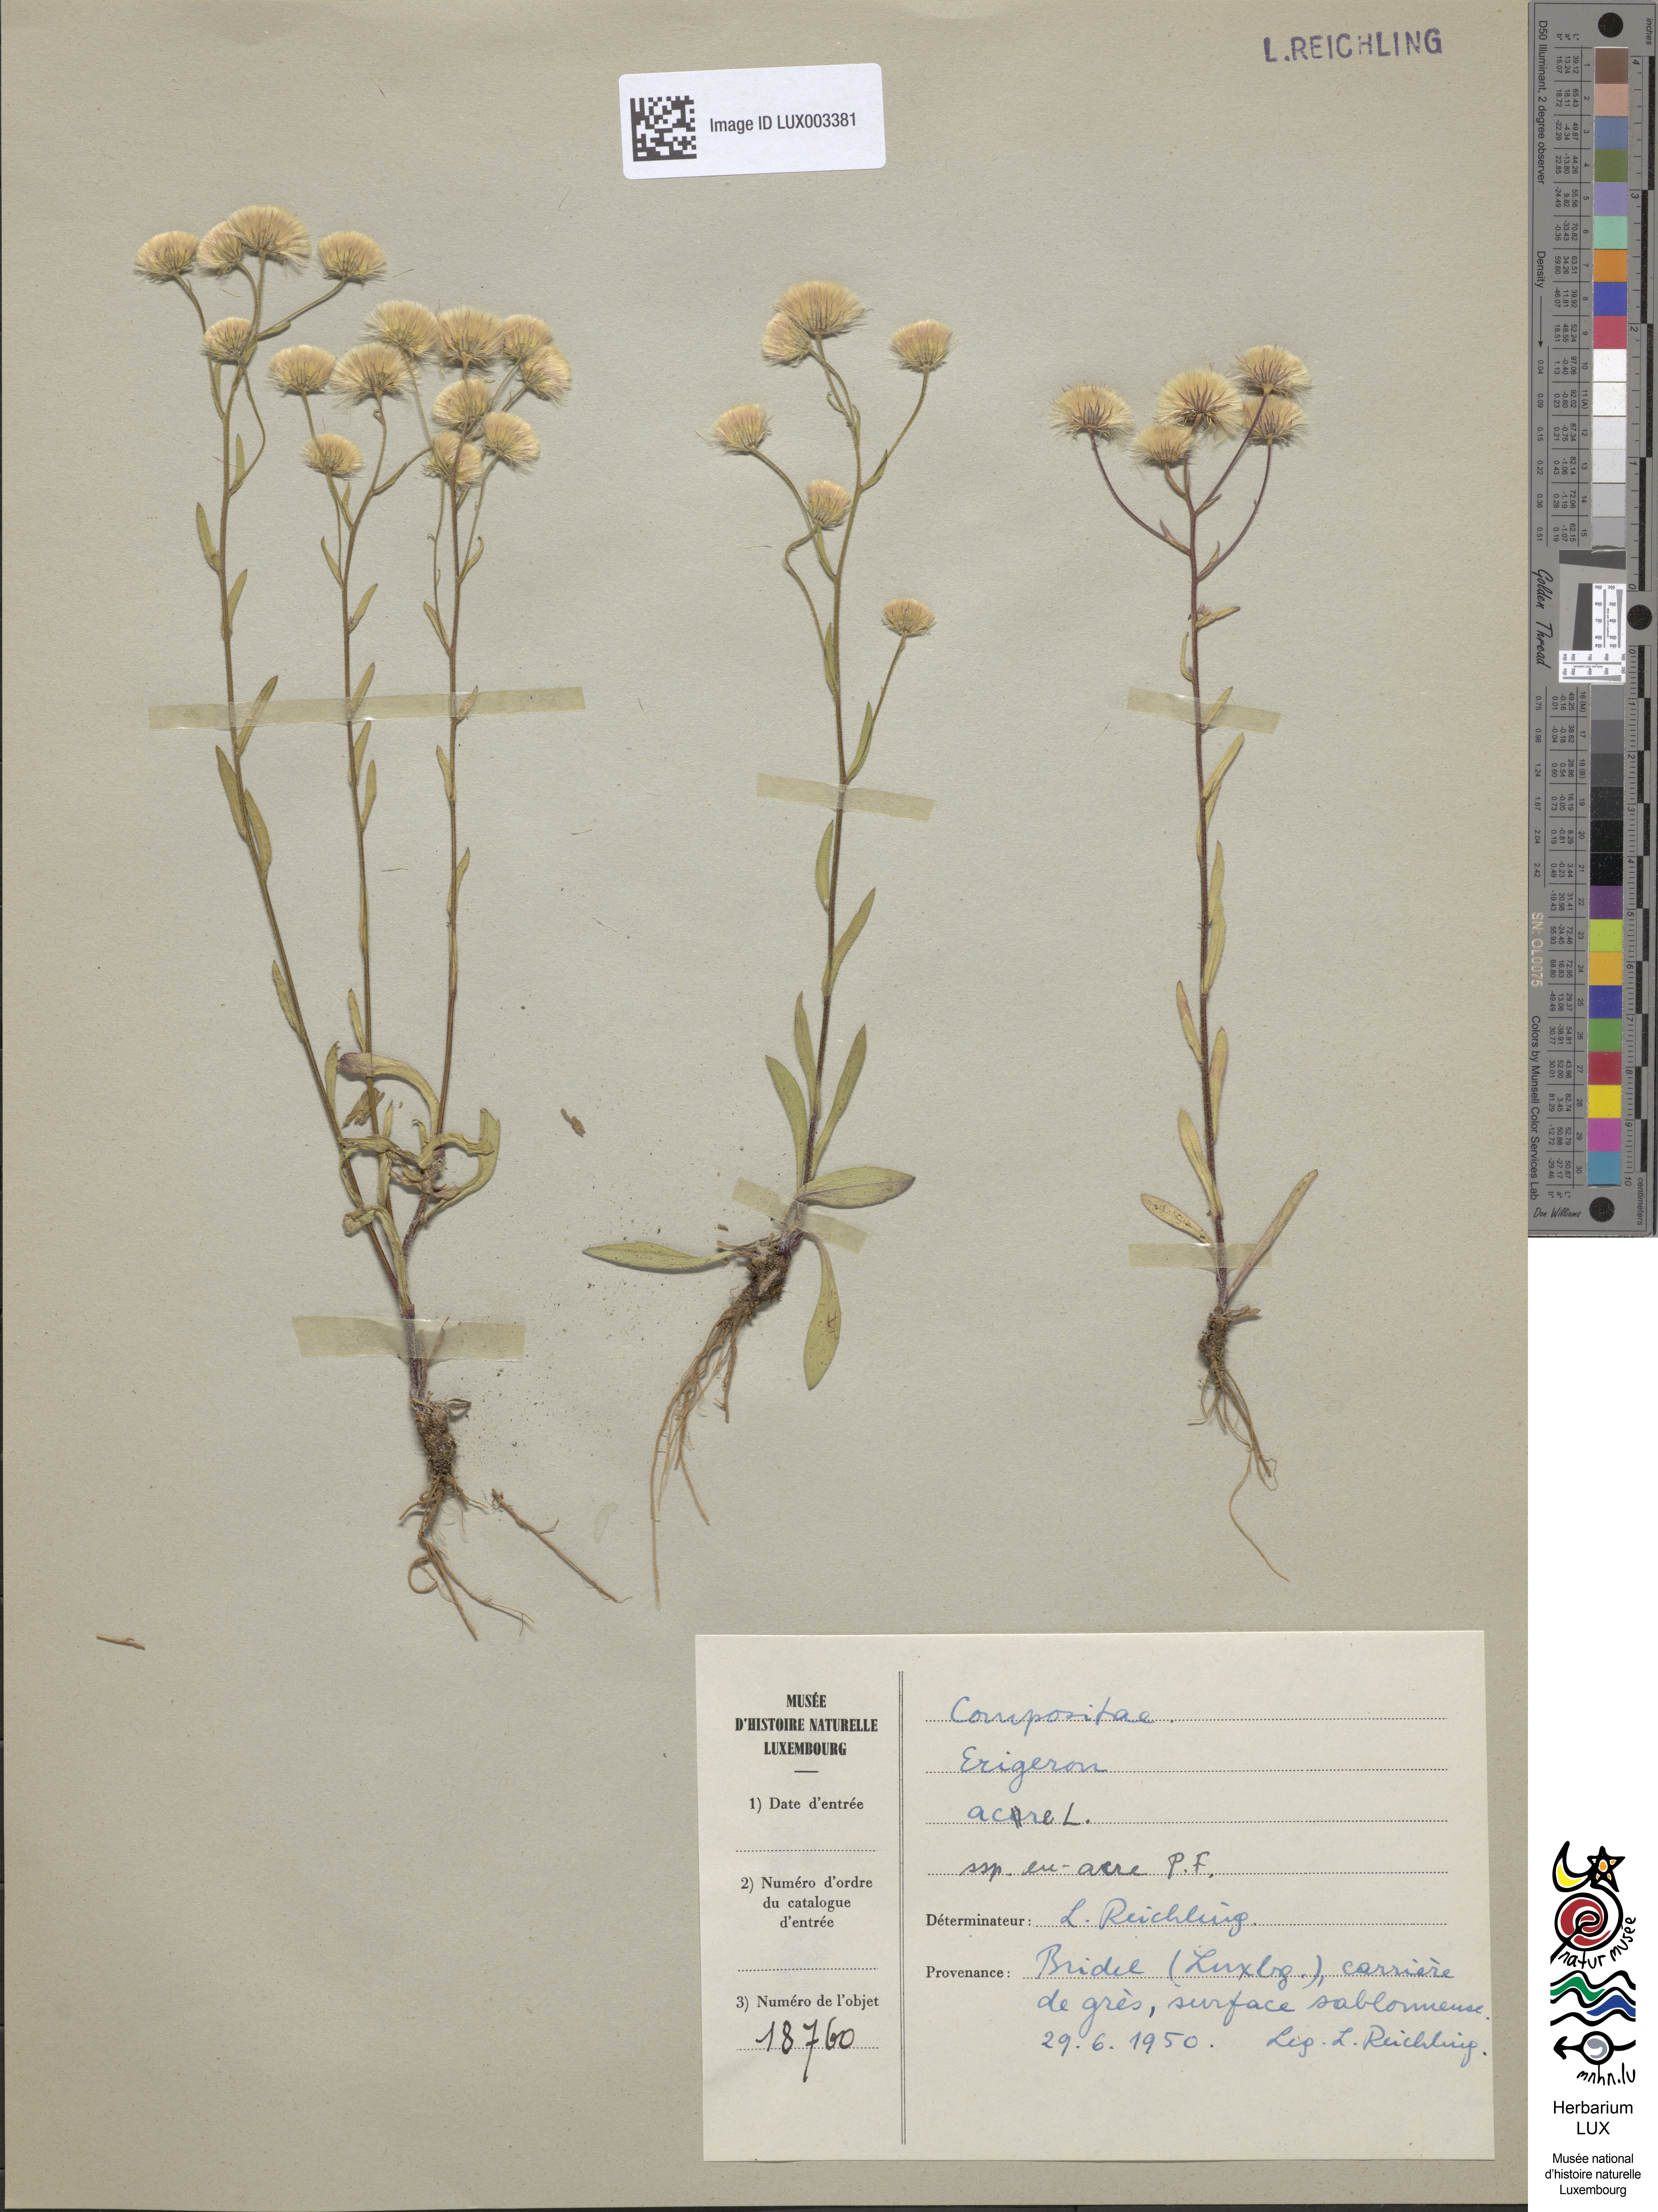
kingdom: Plantae
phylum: Tracheophyta
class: Magnoliopsida
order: Asterales
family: Asteraceae
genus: Erigeron
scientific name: Erigeron acer
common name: Blue fleabane
